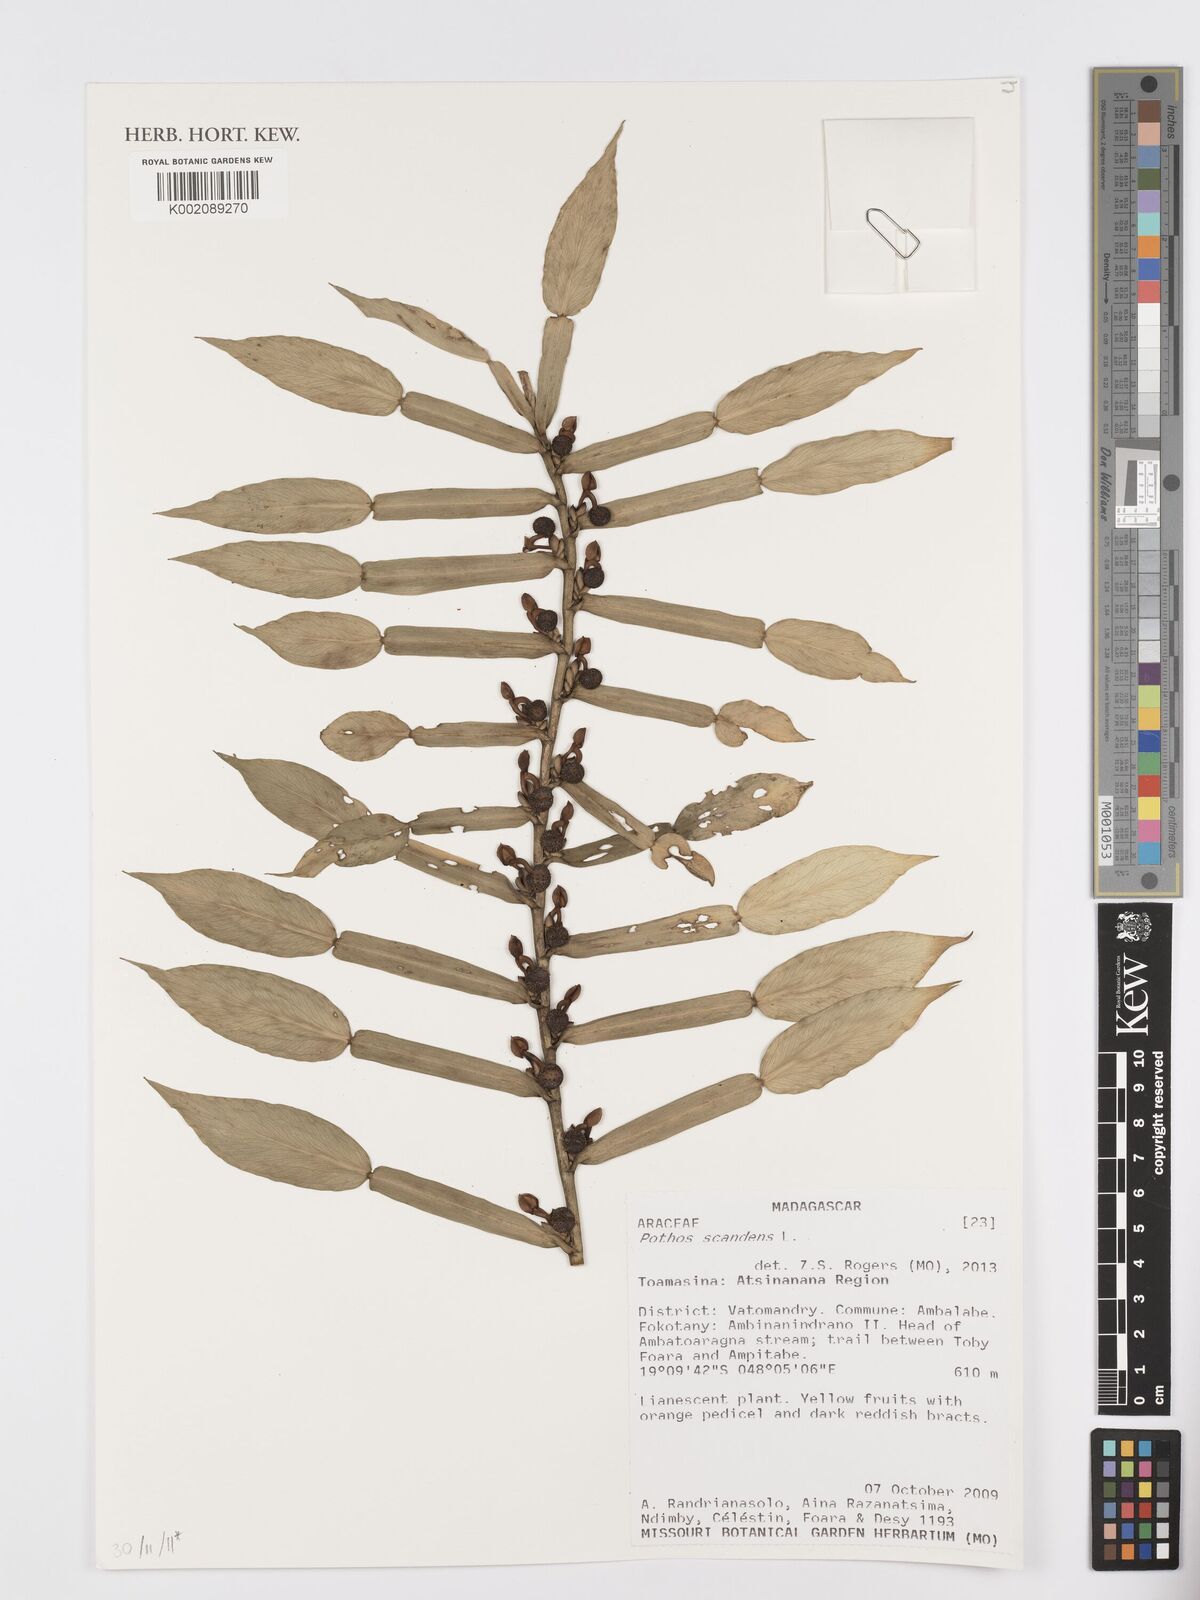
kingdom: Plantae
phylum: Tracheophyta
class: Liliopsida
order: Alismatales
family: Araceae
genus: Pothos
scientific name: Pothos scandens
